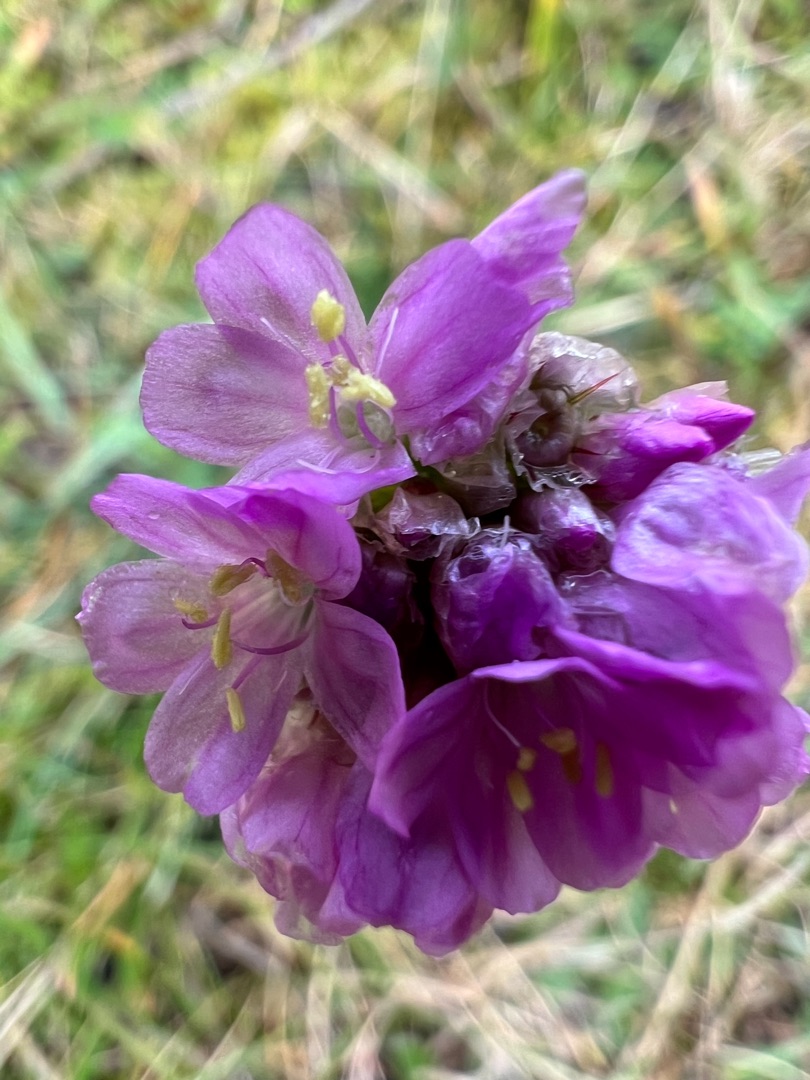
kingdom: Plantae
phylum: Tracheophyta
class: Magnoliopsida
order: Caryophyllales
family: Plumbaginaceae
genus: Armeria
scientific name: Armeria maritima
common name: Engelskgræs
